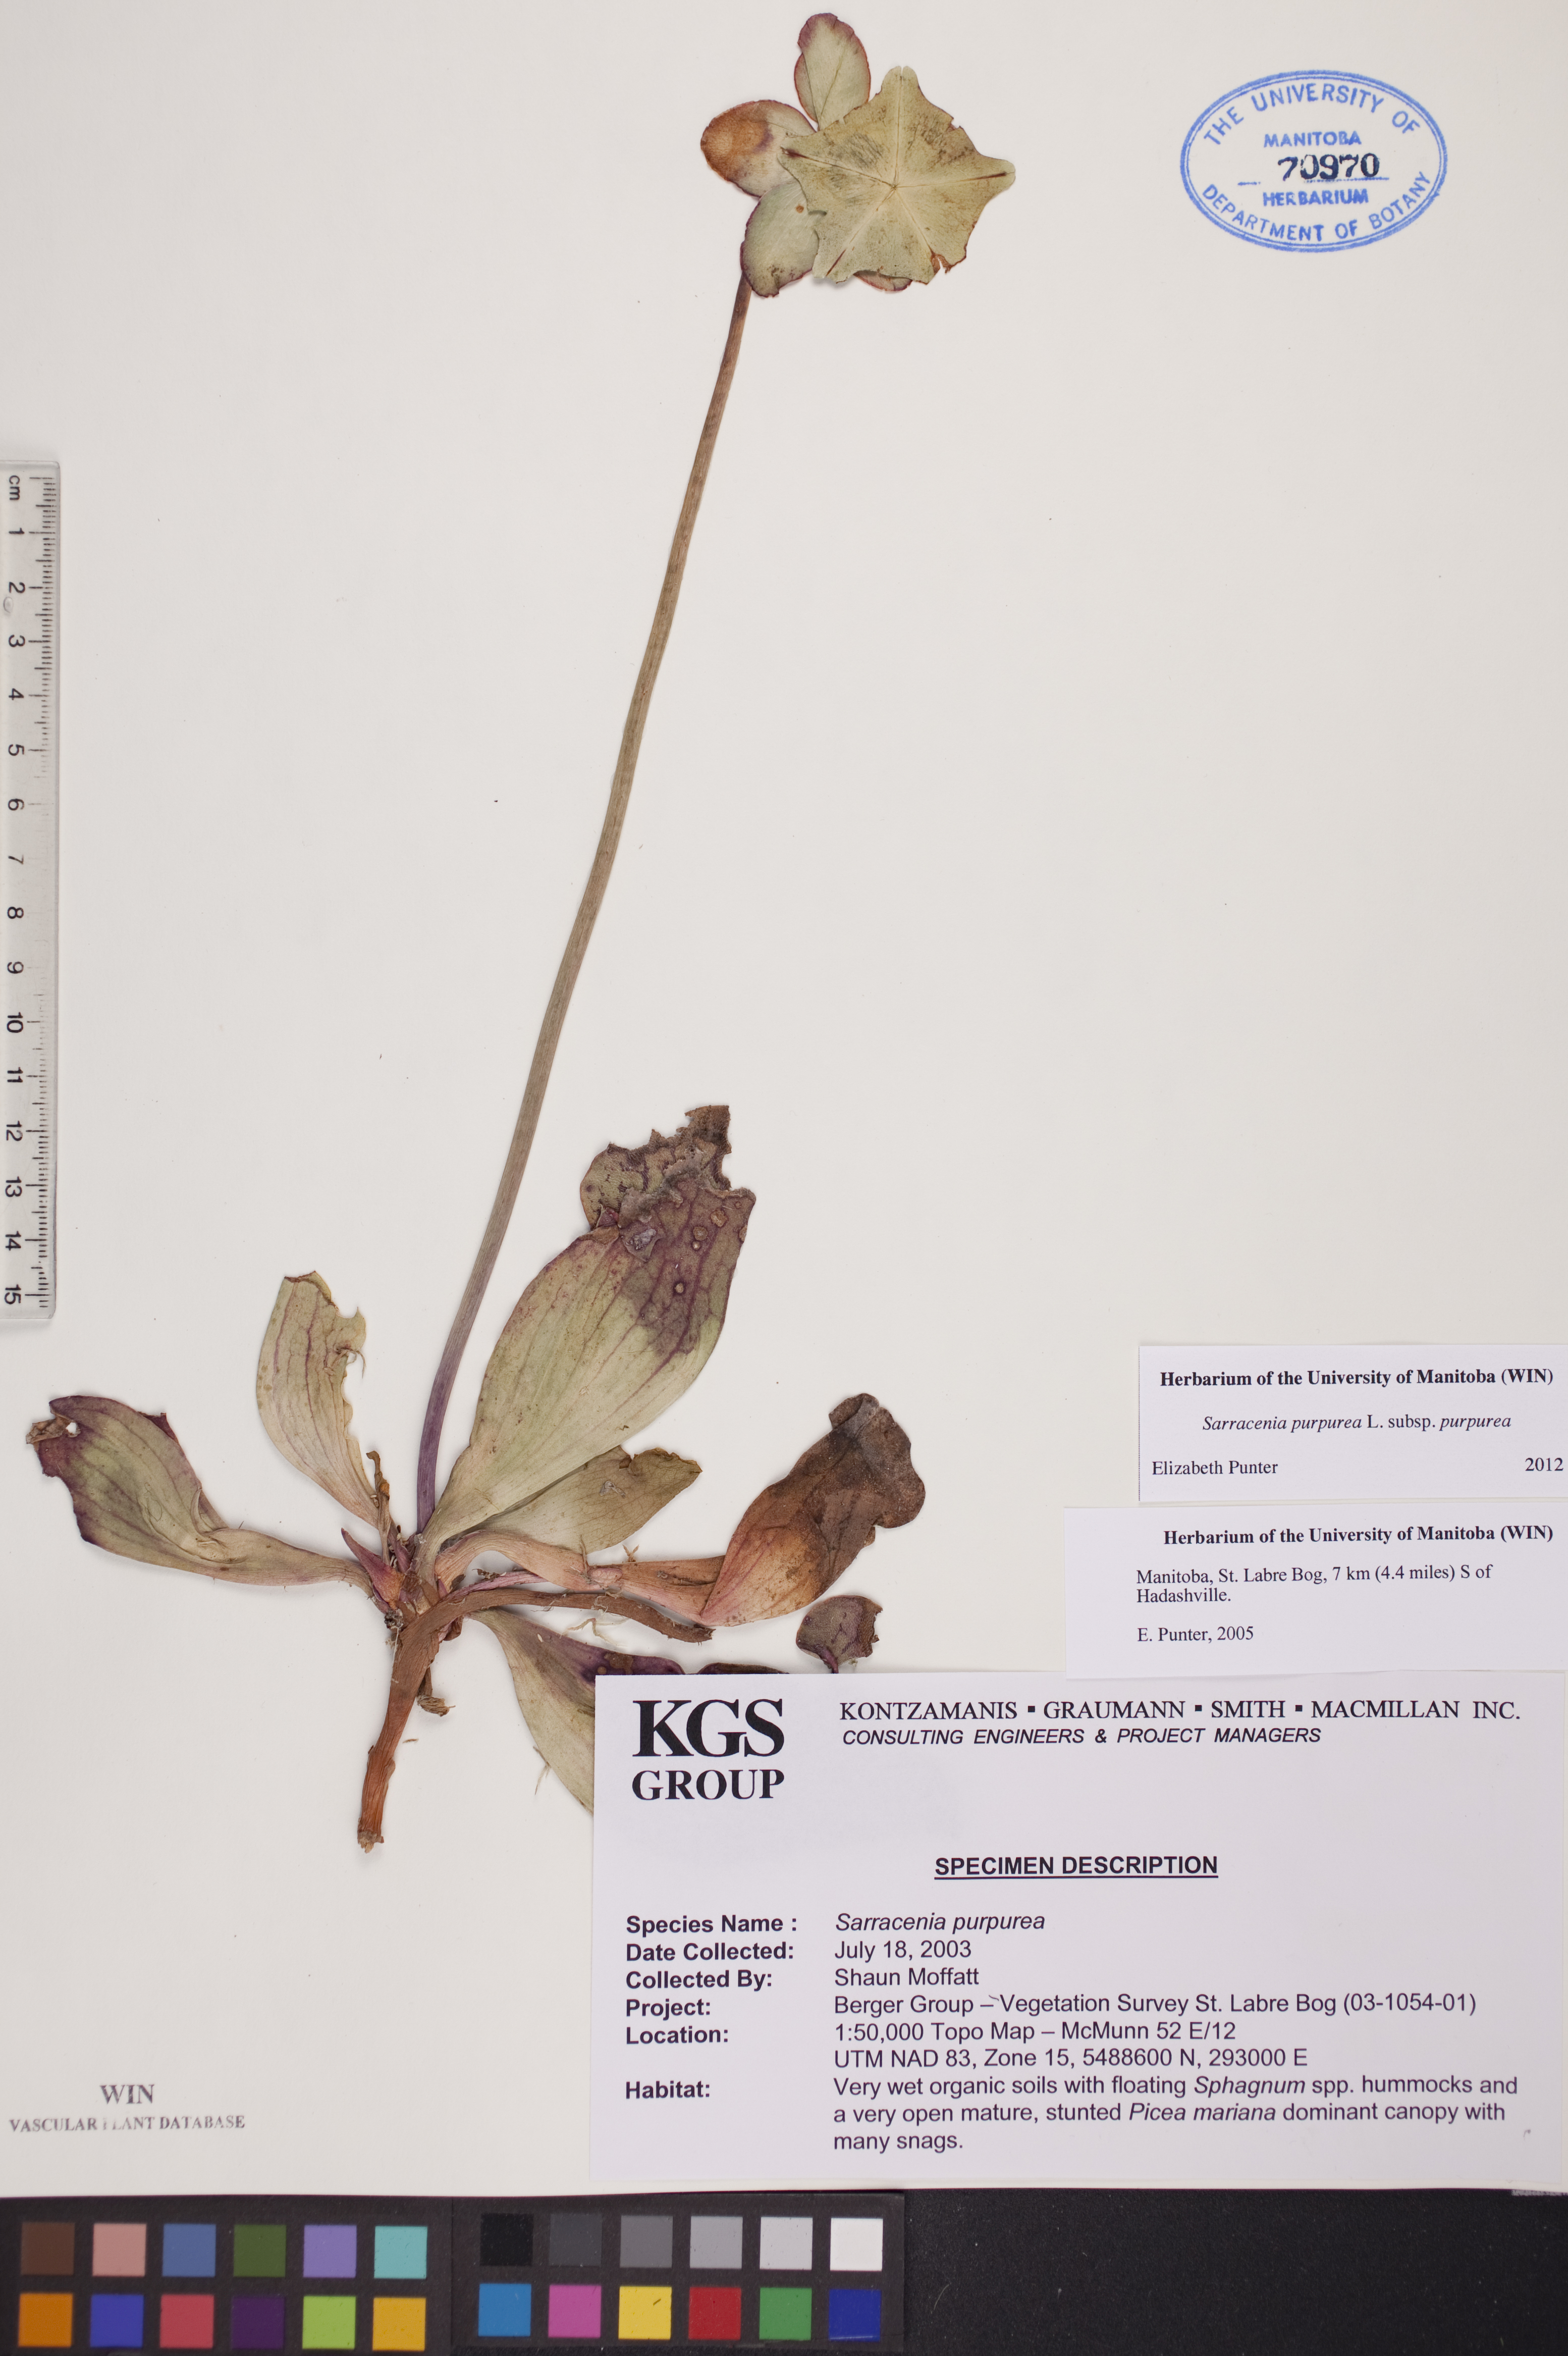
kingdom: Plantae
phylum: Tracheophyta
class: Magnoliopsida
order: Ericales
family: Sarraceniaceae
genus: Sarracenia
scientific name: Sarracenia purpurea
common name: Pitcherplant
